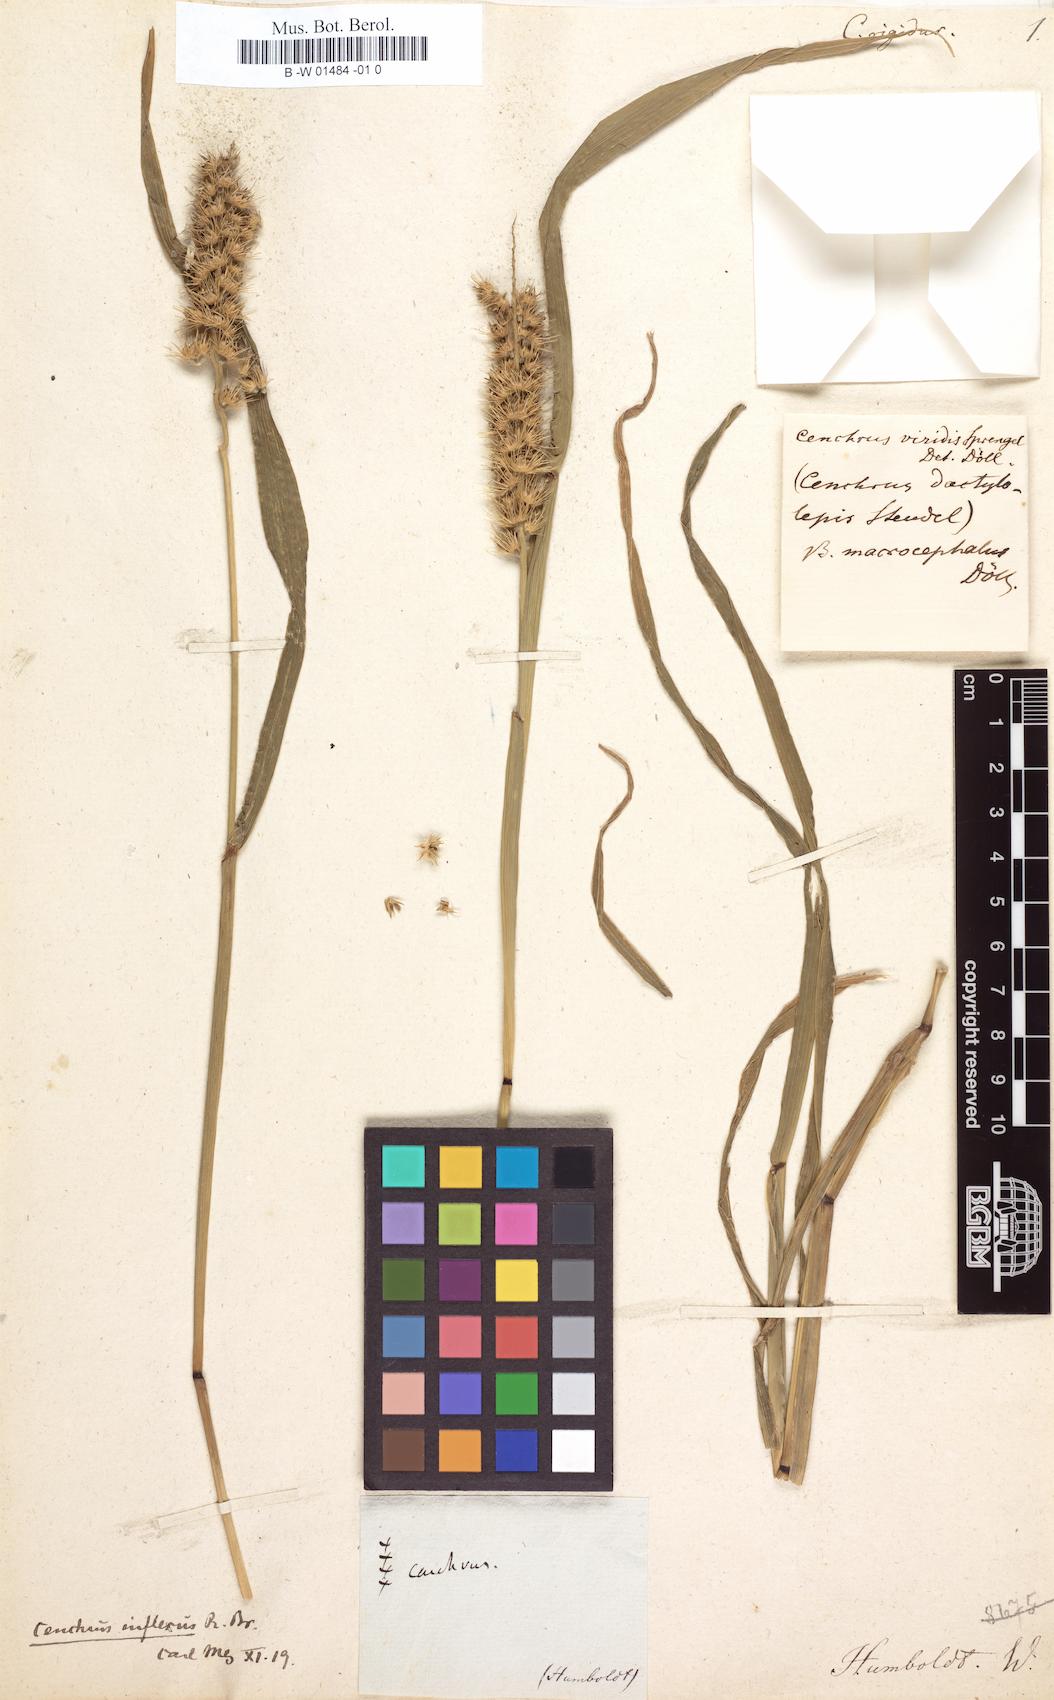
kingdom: Plantae
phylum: Tracheophyta
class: Liliopsida
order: Poales
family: Poaceae
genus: Cenchrus
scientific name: Cenchrus brownii
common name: Slim-bristle sandbur
